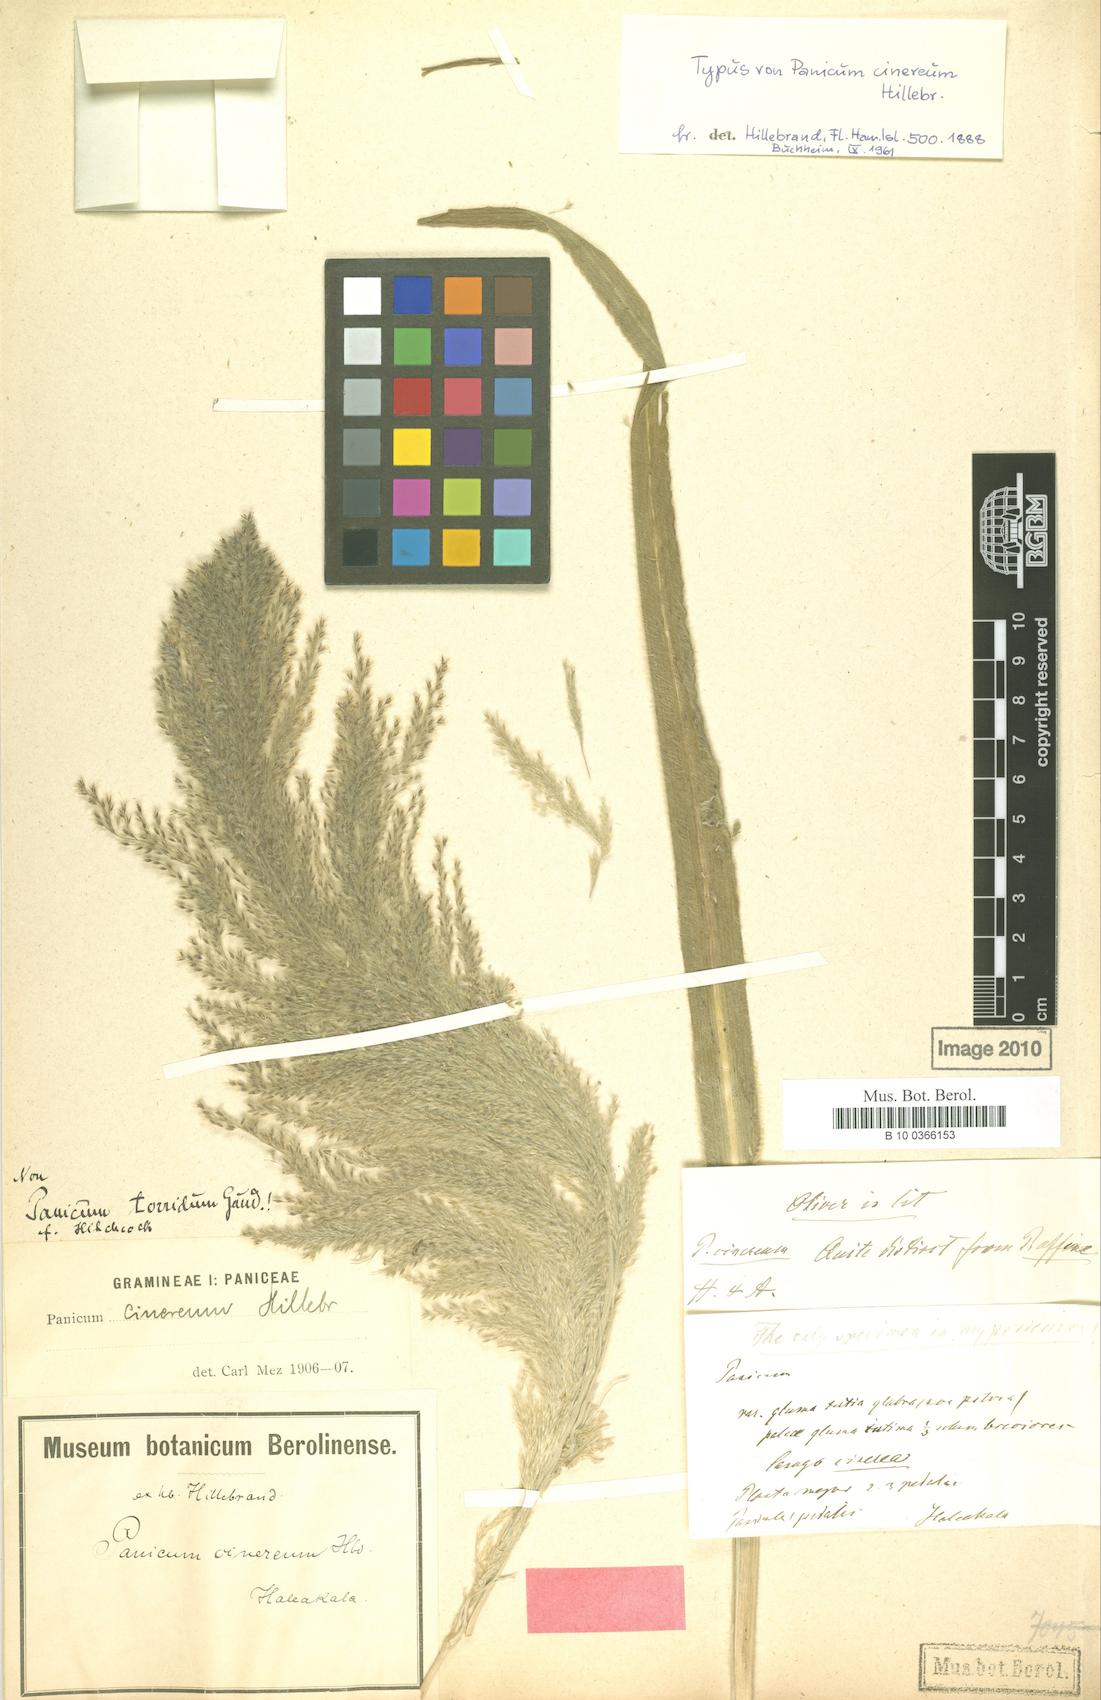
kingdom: Plantae
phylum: Tracheophyta
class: Liliopsida
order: Poales
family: Poaceae
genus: Panicum
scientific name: Panicum torridum
